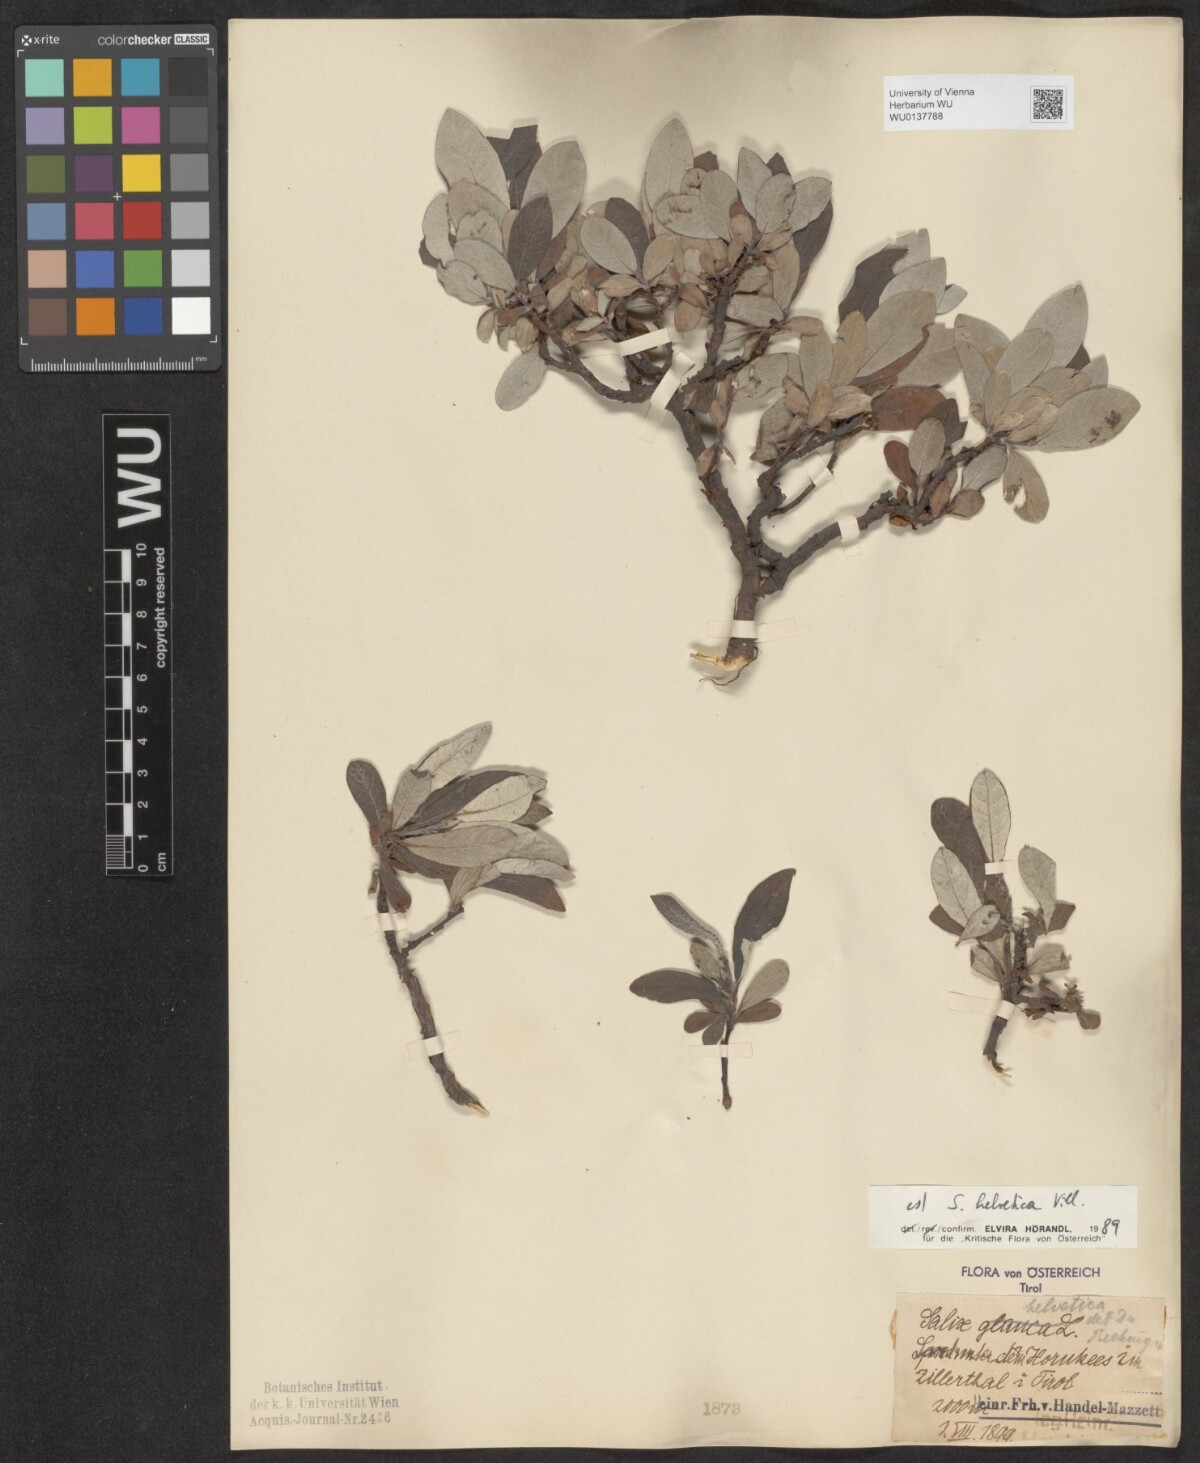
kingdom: Plantae
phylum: Tracheophyta
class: Magnoliopsida
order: Malpighiales
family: Salicaceae
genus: Salix
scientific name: Salix helvetica
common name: Swiss willow
